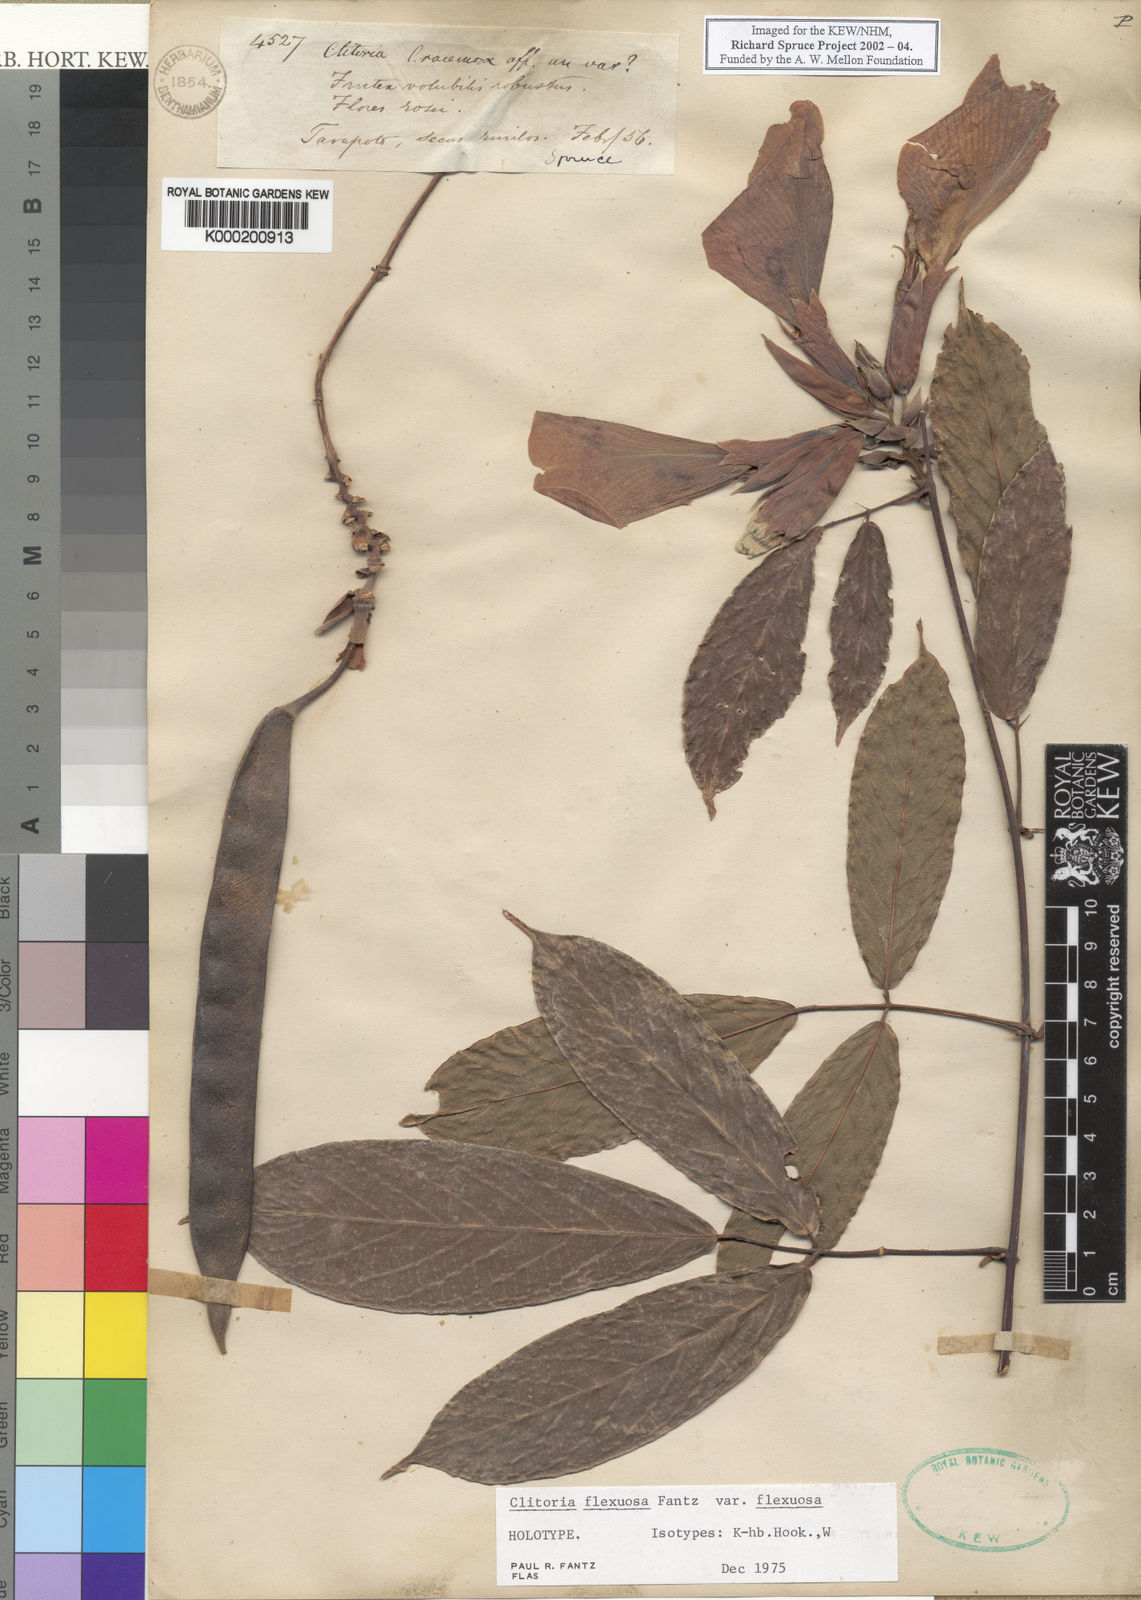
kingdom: Plantae
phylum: Tracheophyta
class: Magnoliopsida
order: Fabales
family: Fabaceae
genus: Clitoria
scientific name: Clitoria flexuosa
